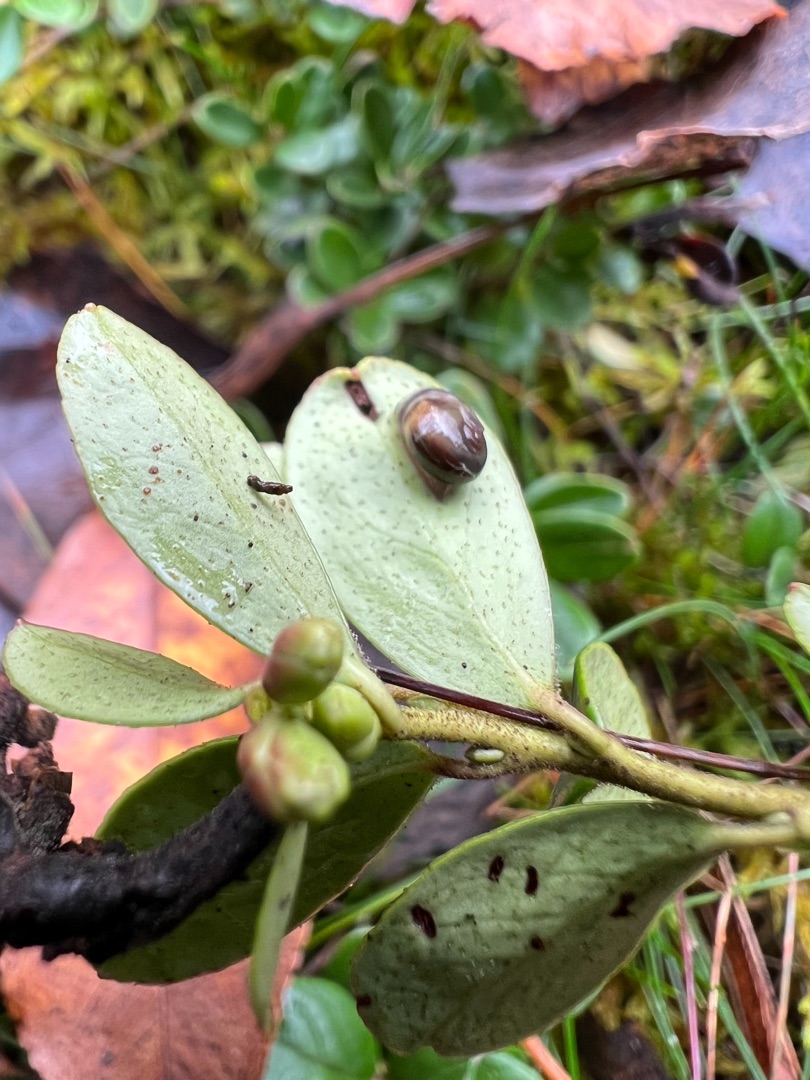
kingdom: Plantae
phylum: Tracheophyta
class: Magnoliopsida
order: Ericales
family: Ericaceae
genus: Vaccinium
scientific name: Vaccinium vitis-idaea
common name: Tyttebær
